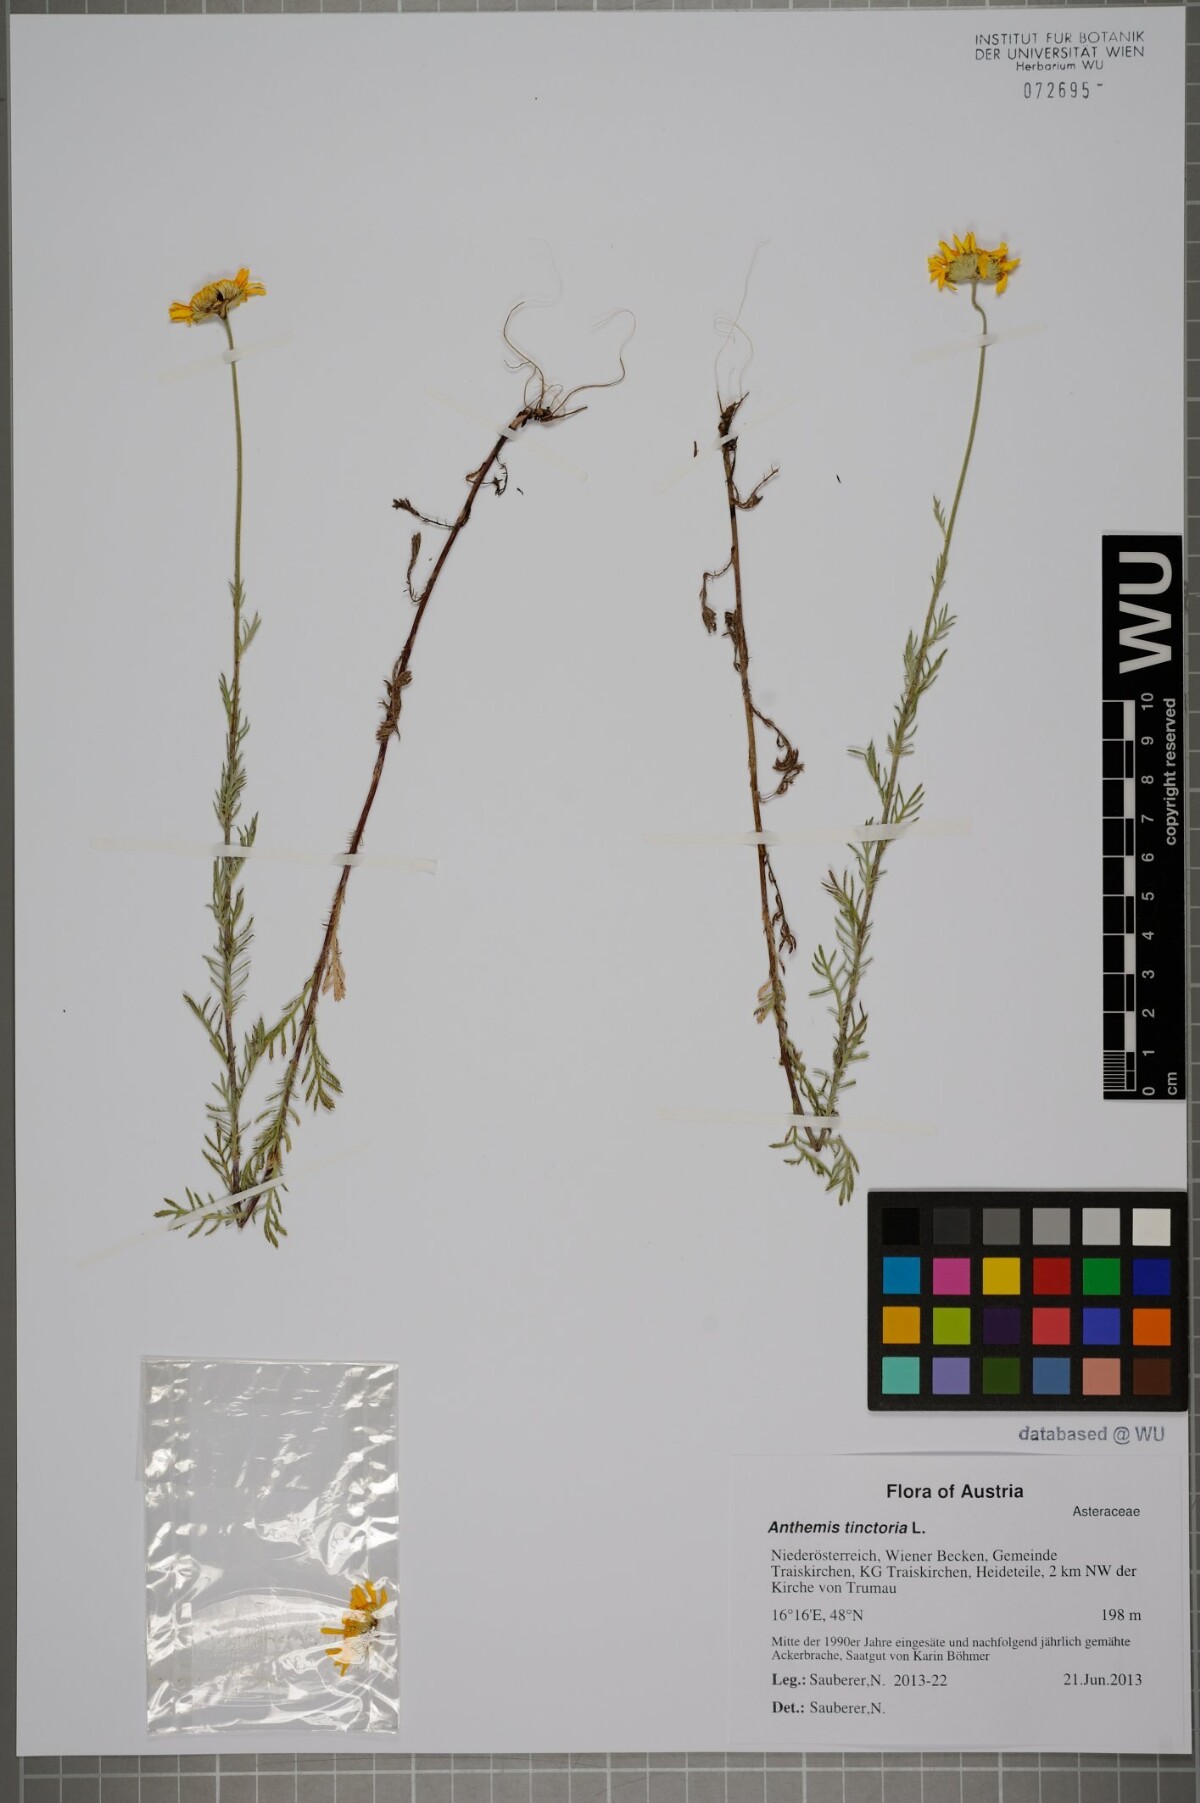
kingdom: Plantae
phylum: Tracheophyta
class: Magnoliopsida
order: Asterales
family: Asteraceae
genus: Cota
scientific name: Cota tinctoria
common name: Golden chamomile
